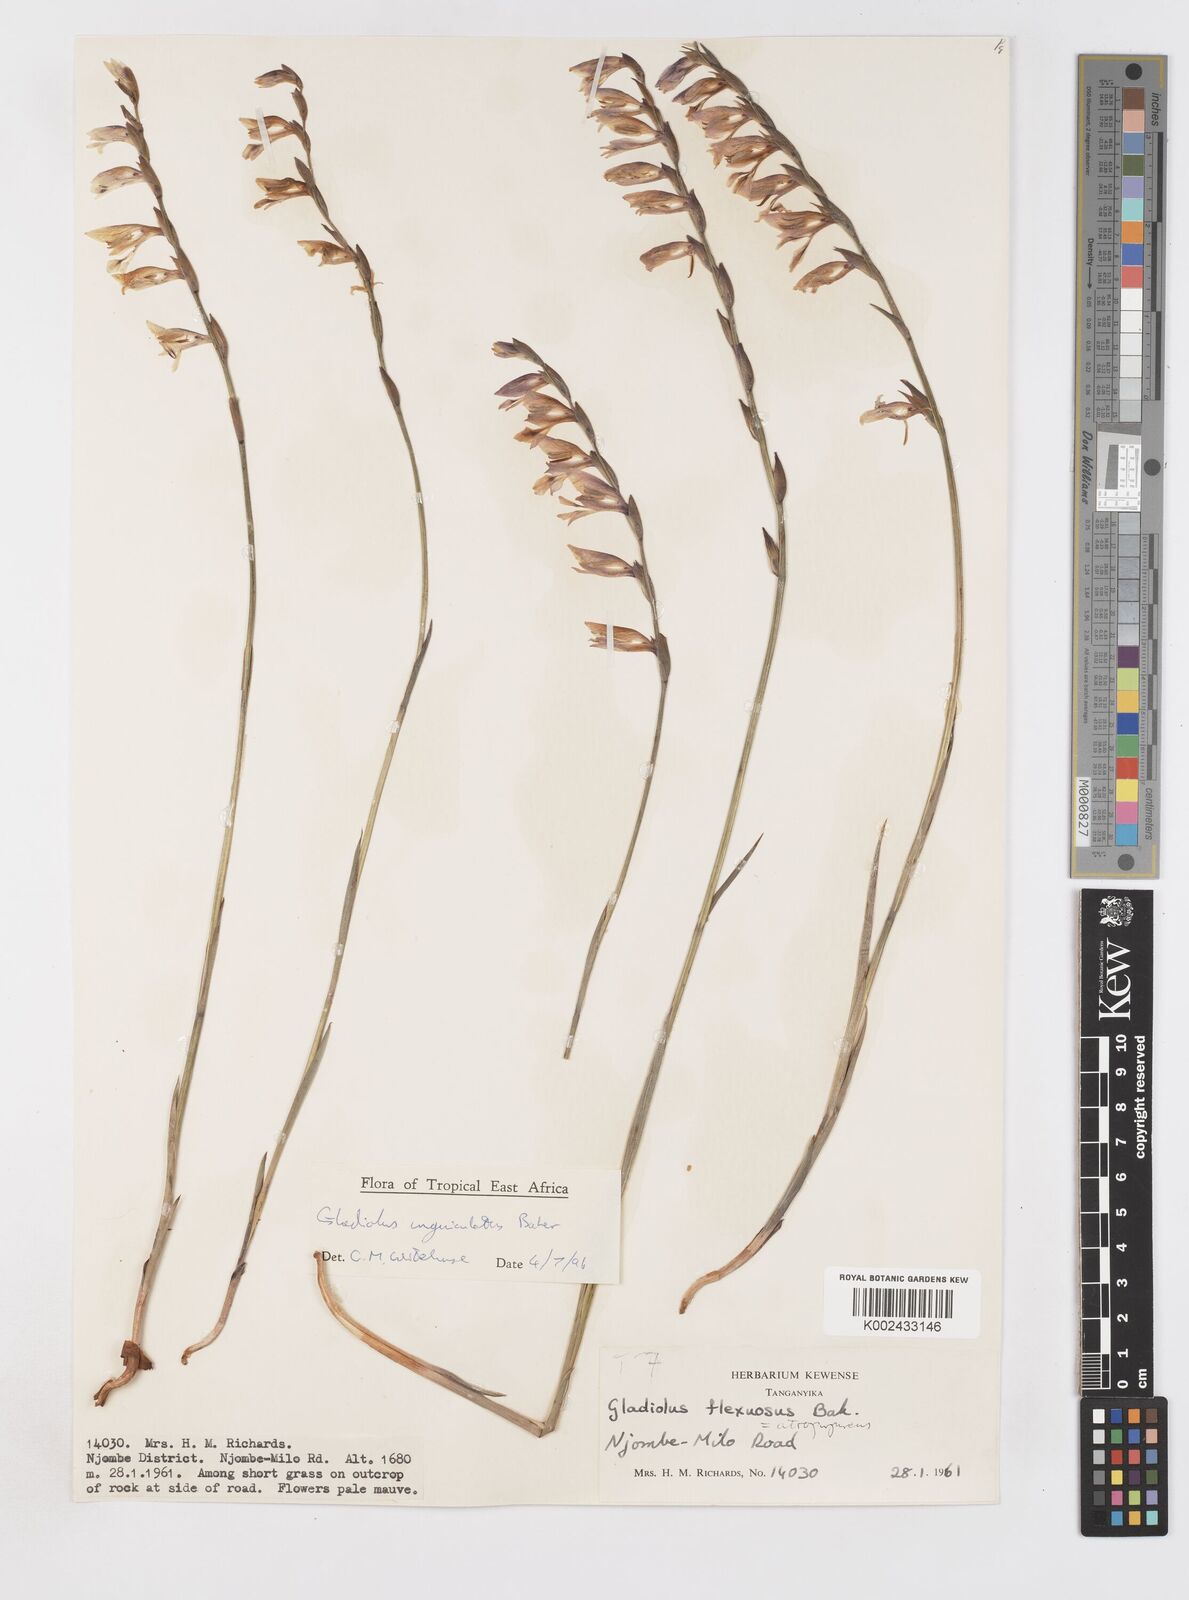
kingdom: Plantae
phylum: Tracheophyta
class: Liliopsida
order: Asparagales
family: Iridaceae
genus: Gladiolus
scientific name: Gladiolus unguiculatus
